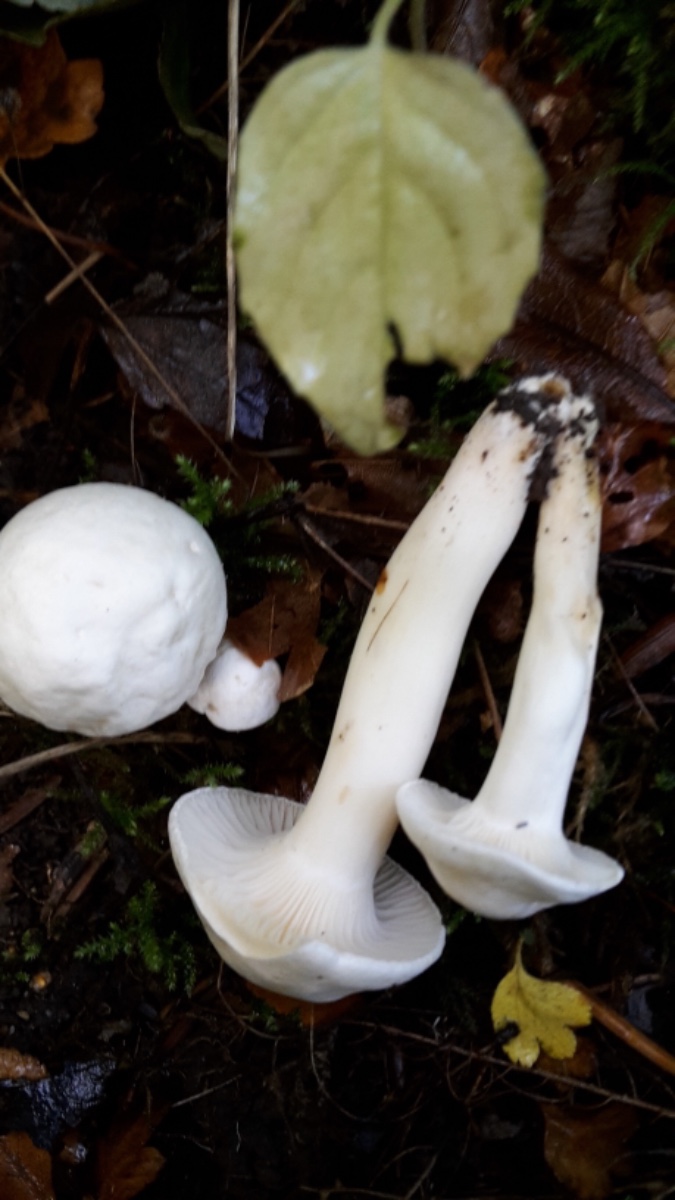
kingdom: Fungi
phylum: Basidiomycota
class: Agaricomycetes
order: Agaricales
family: Hygrophoraceae
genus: Cuphophyllus
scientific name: Cuphophyllus pratensis
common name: bleg vokshat
